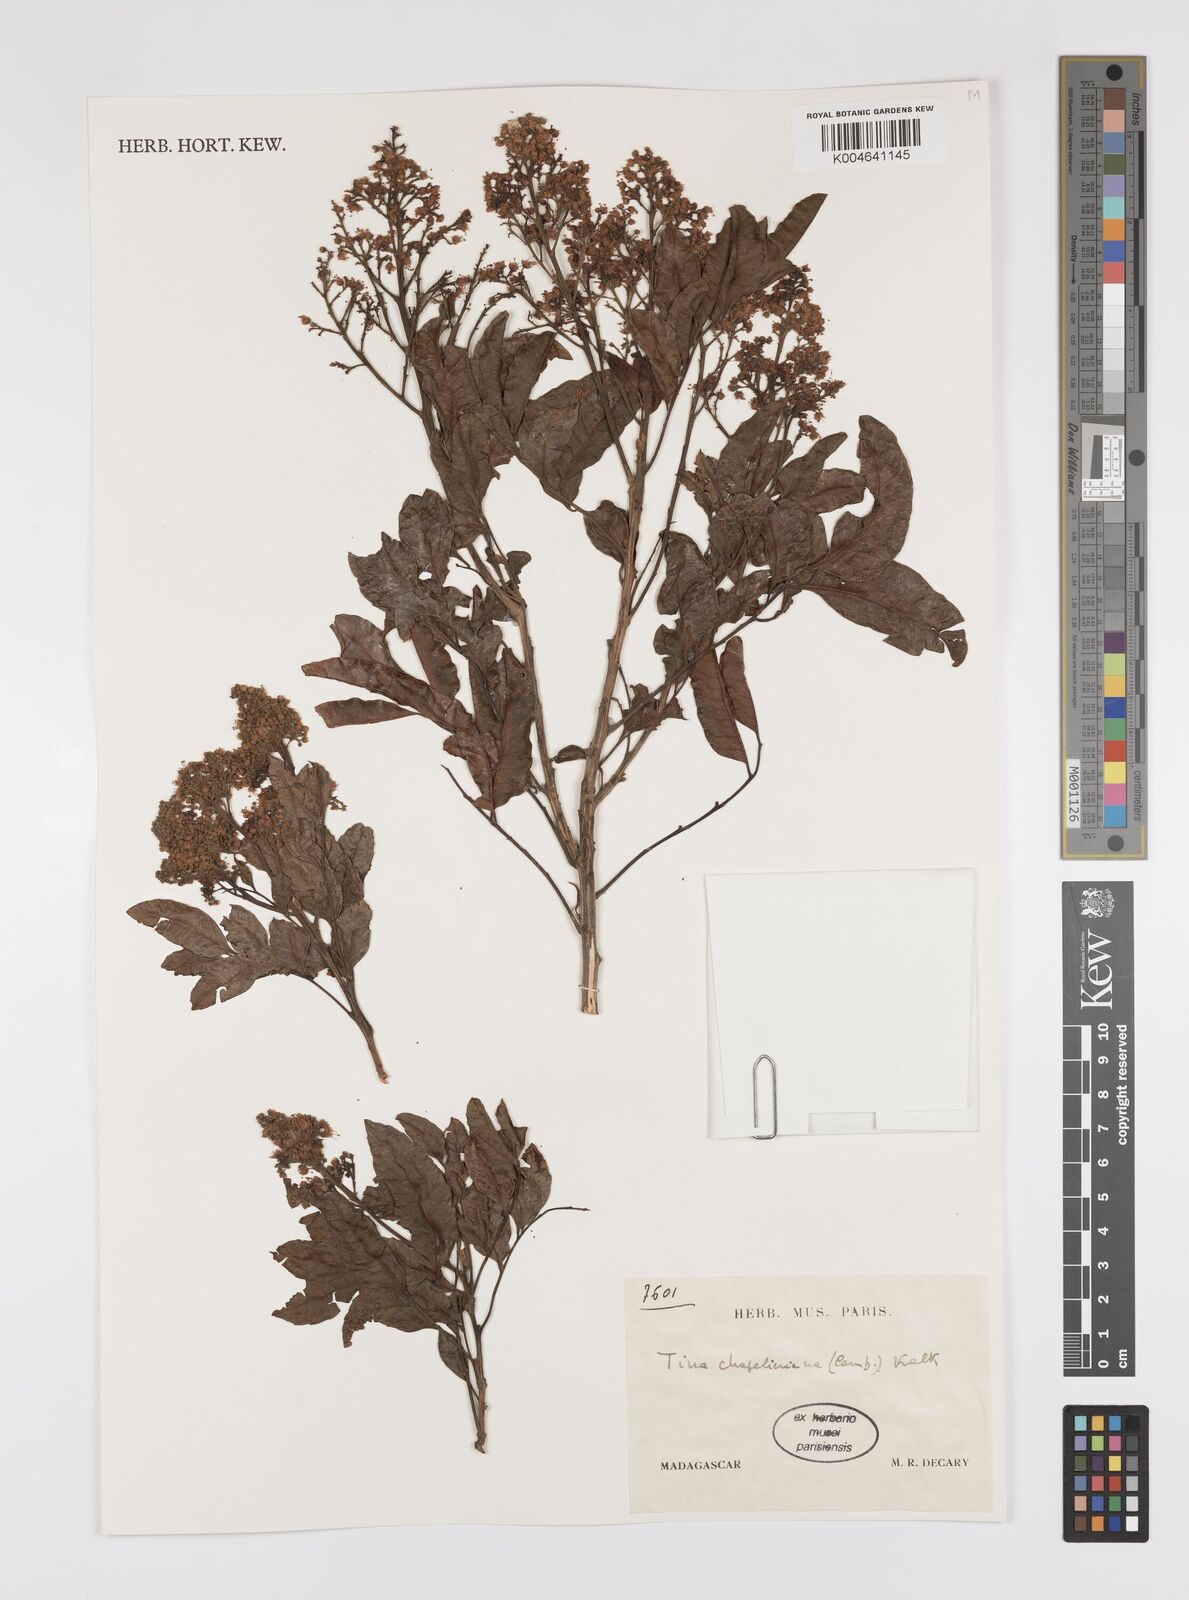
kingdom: Plantae
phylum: Tracheophyta
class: Magnoliopsida
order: Sapindales
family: Sapindaceae
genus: Tina
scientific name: Tina chapelieriana
